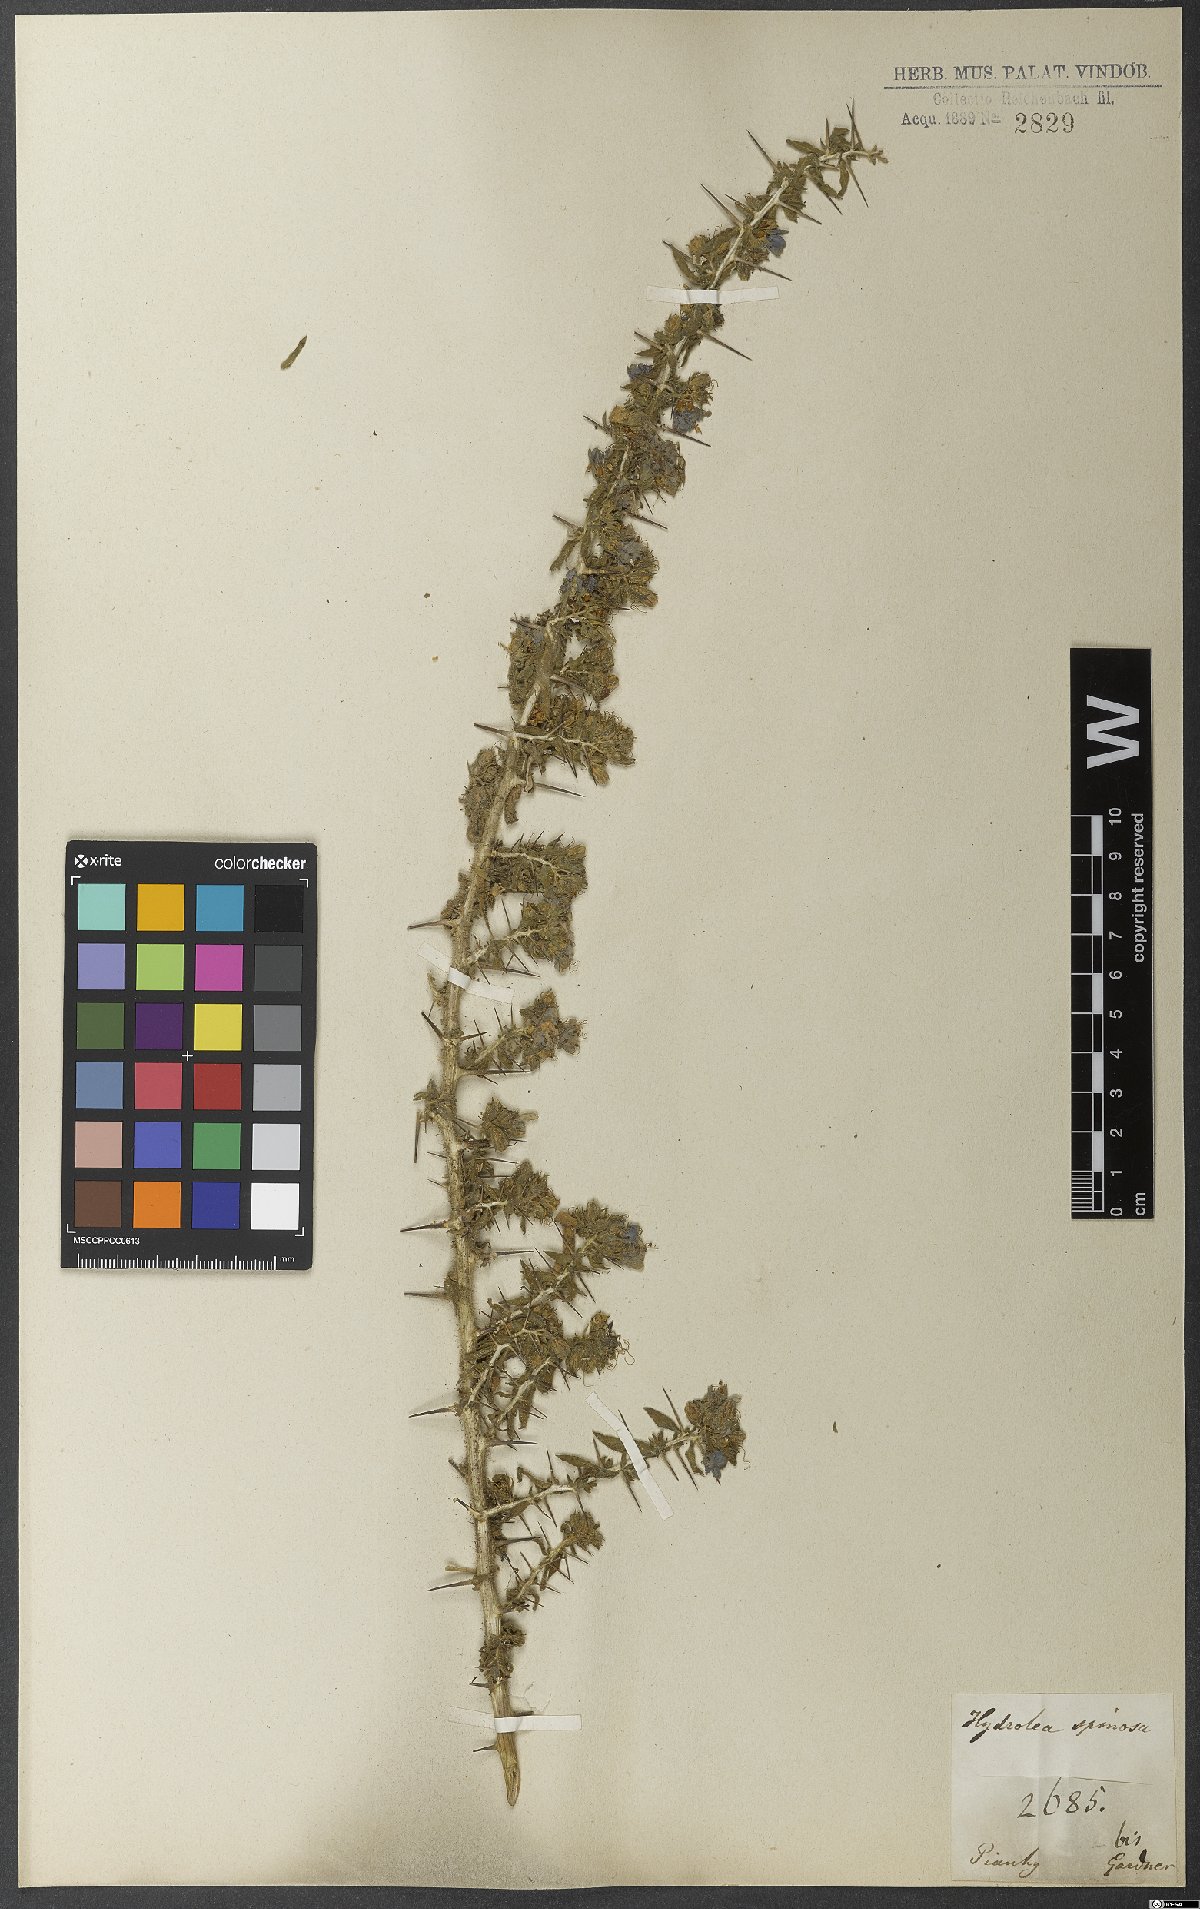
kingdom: Plantae
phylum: Tracheophyta
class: Magnoliopsida
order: Solanales
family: Hydroleaceae
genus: Hydrolea
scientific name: Hydrolea spinosa
